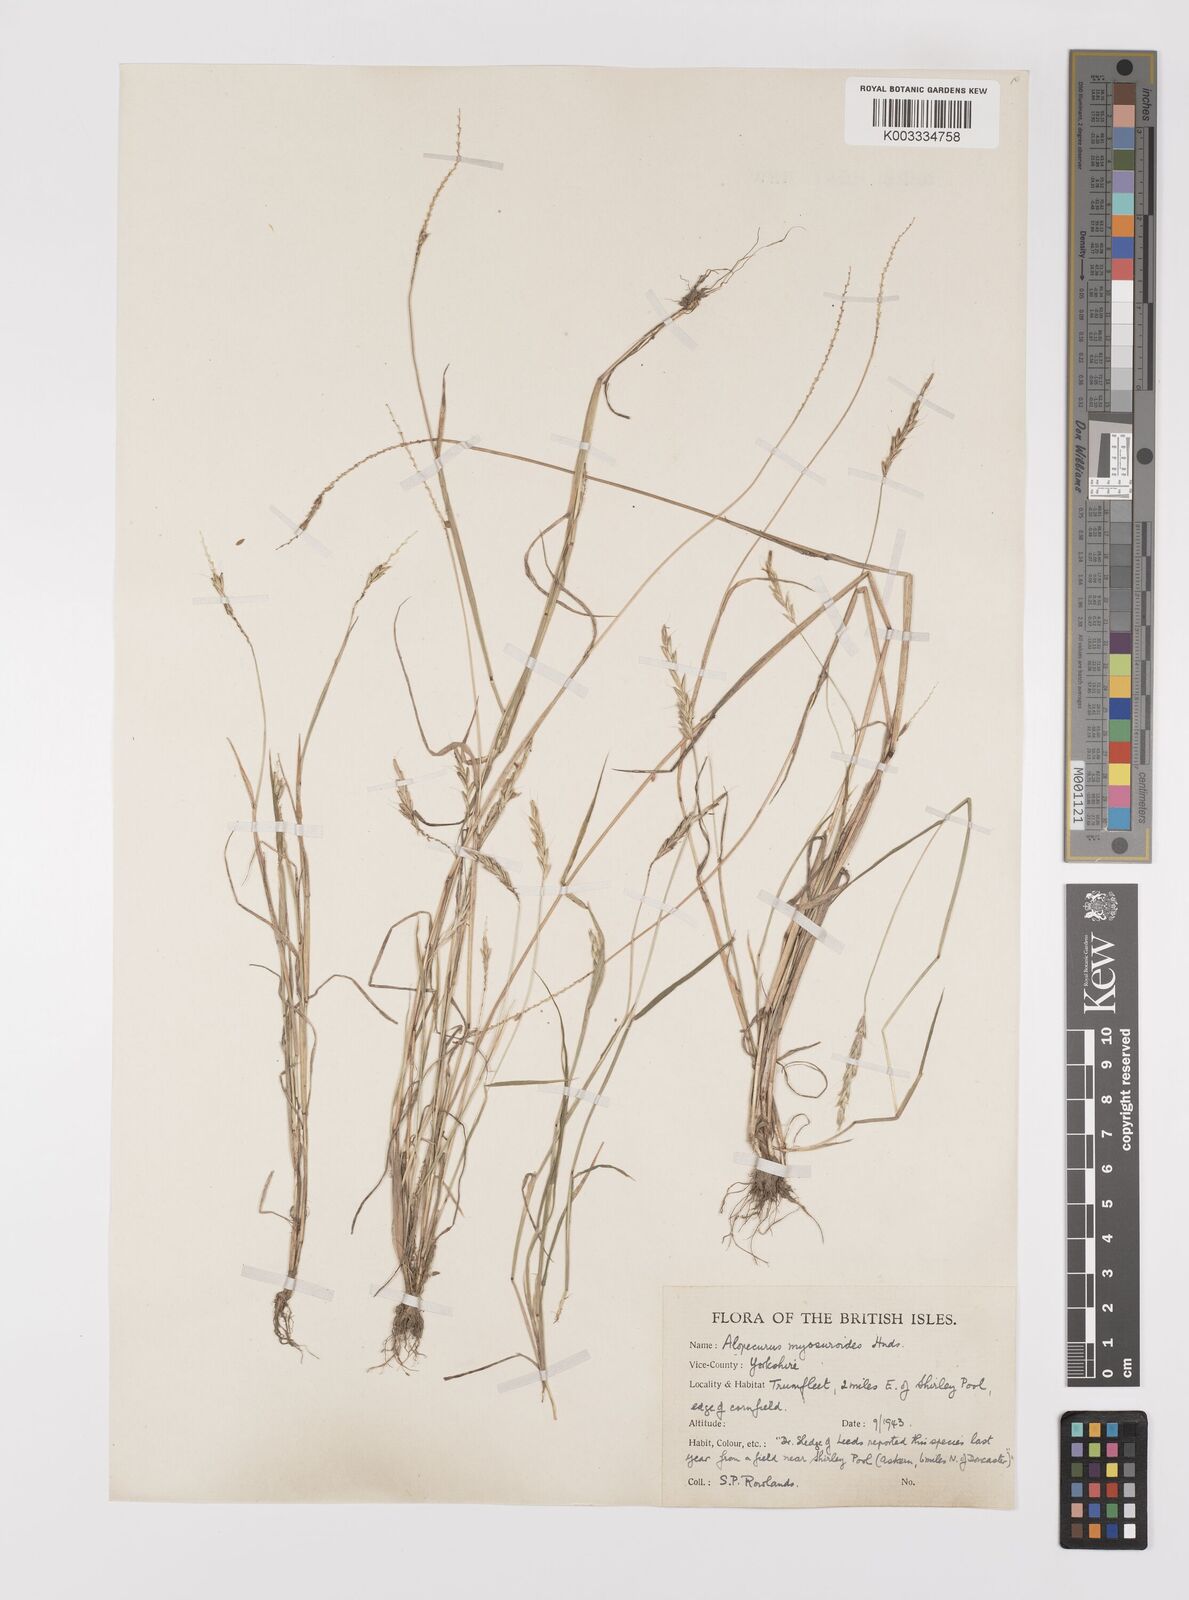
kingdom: Plantae
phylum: Tracheophyta
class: Liliopsida
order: Poales
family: Poaceae
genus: Alopecurus
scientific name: Alopecurus myosuroides
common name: Black-grass
